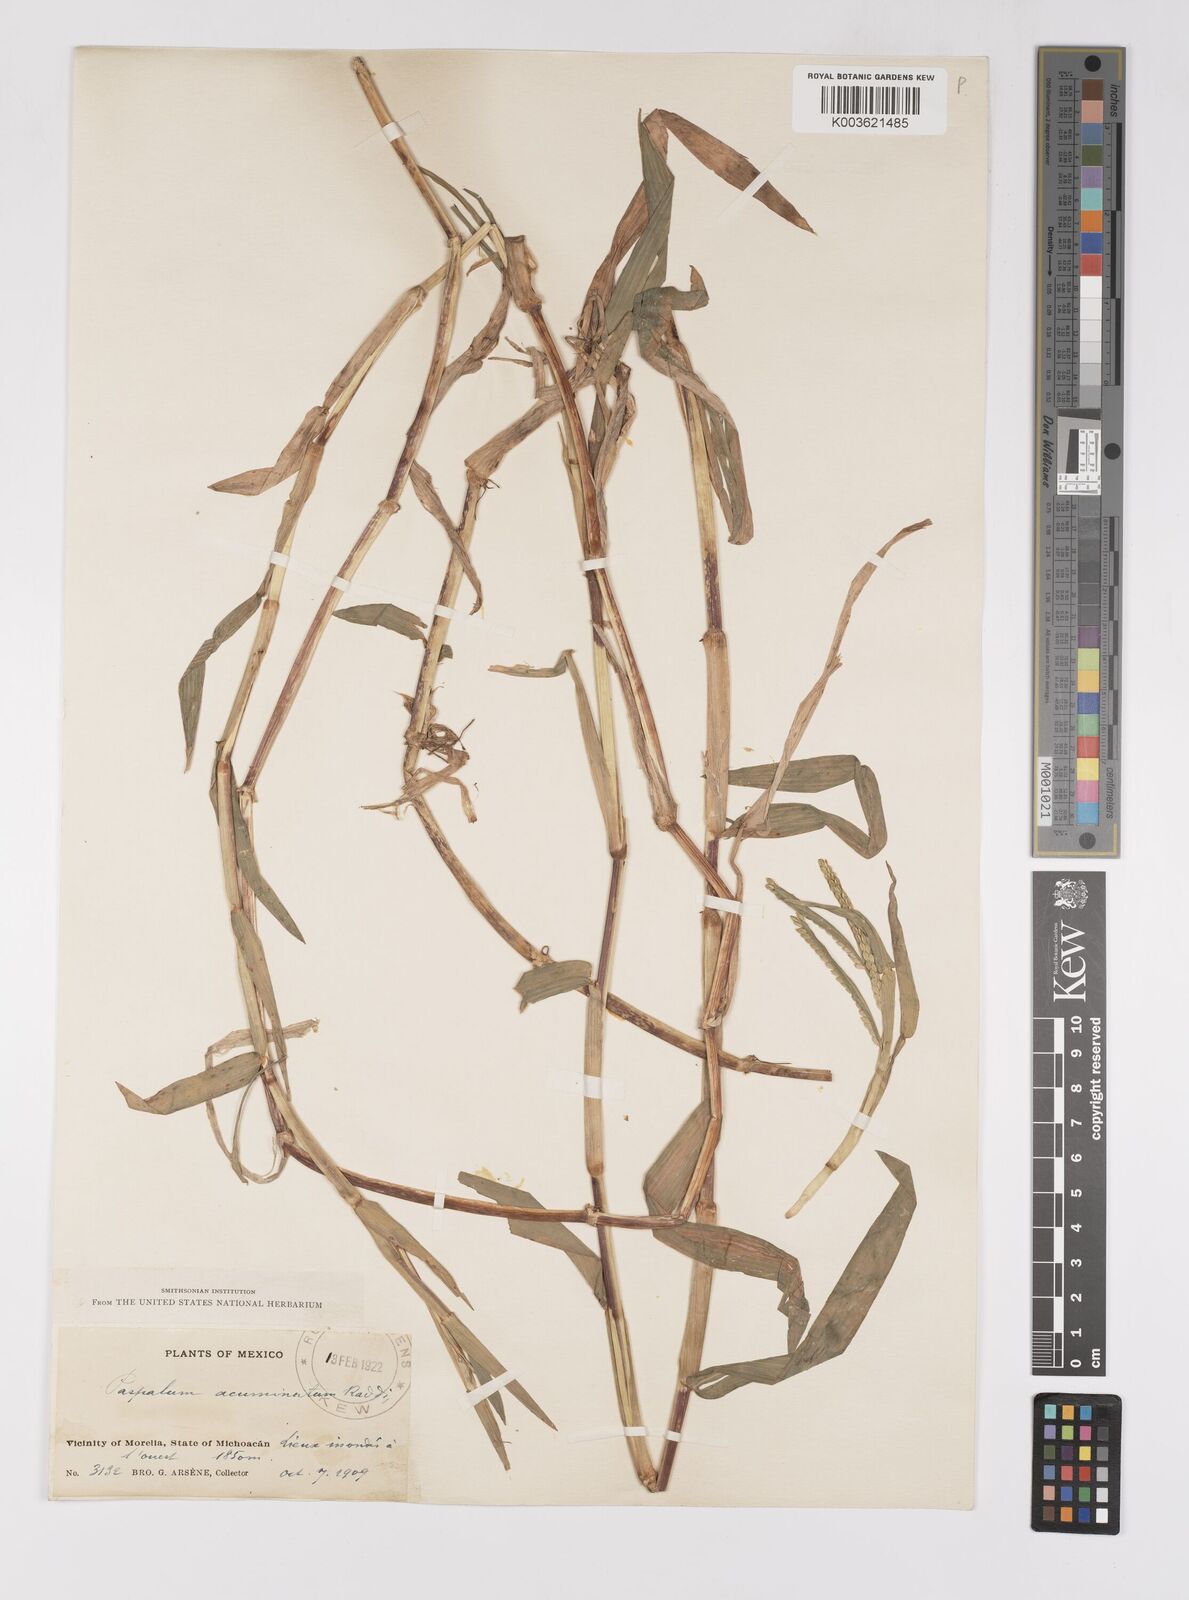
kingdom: Plantae
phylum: Tracheophyta
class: Liliopsida
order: Poales
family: Poaceae
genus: Paspalum
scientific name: Paspalum acuminatum
